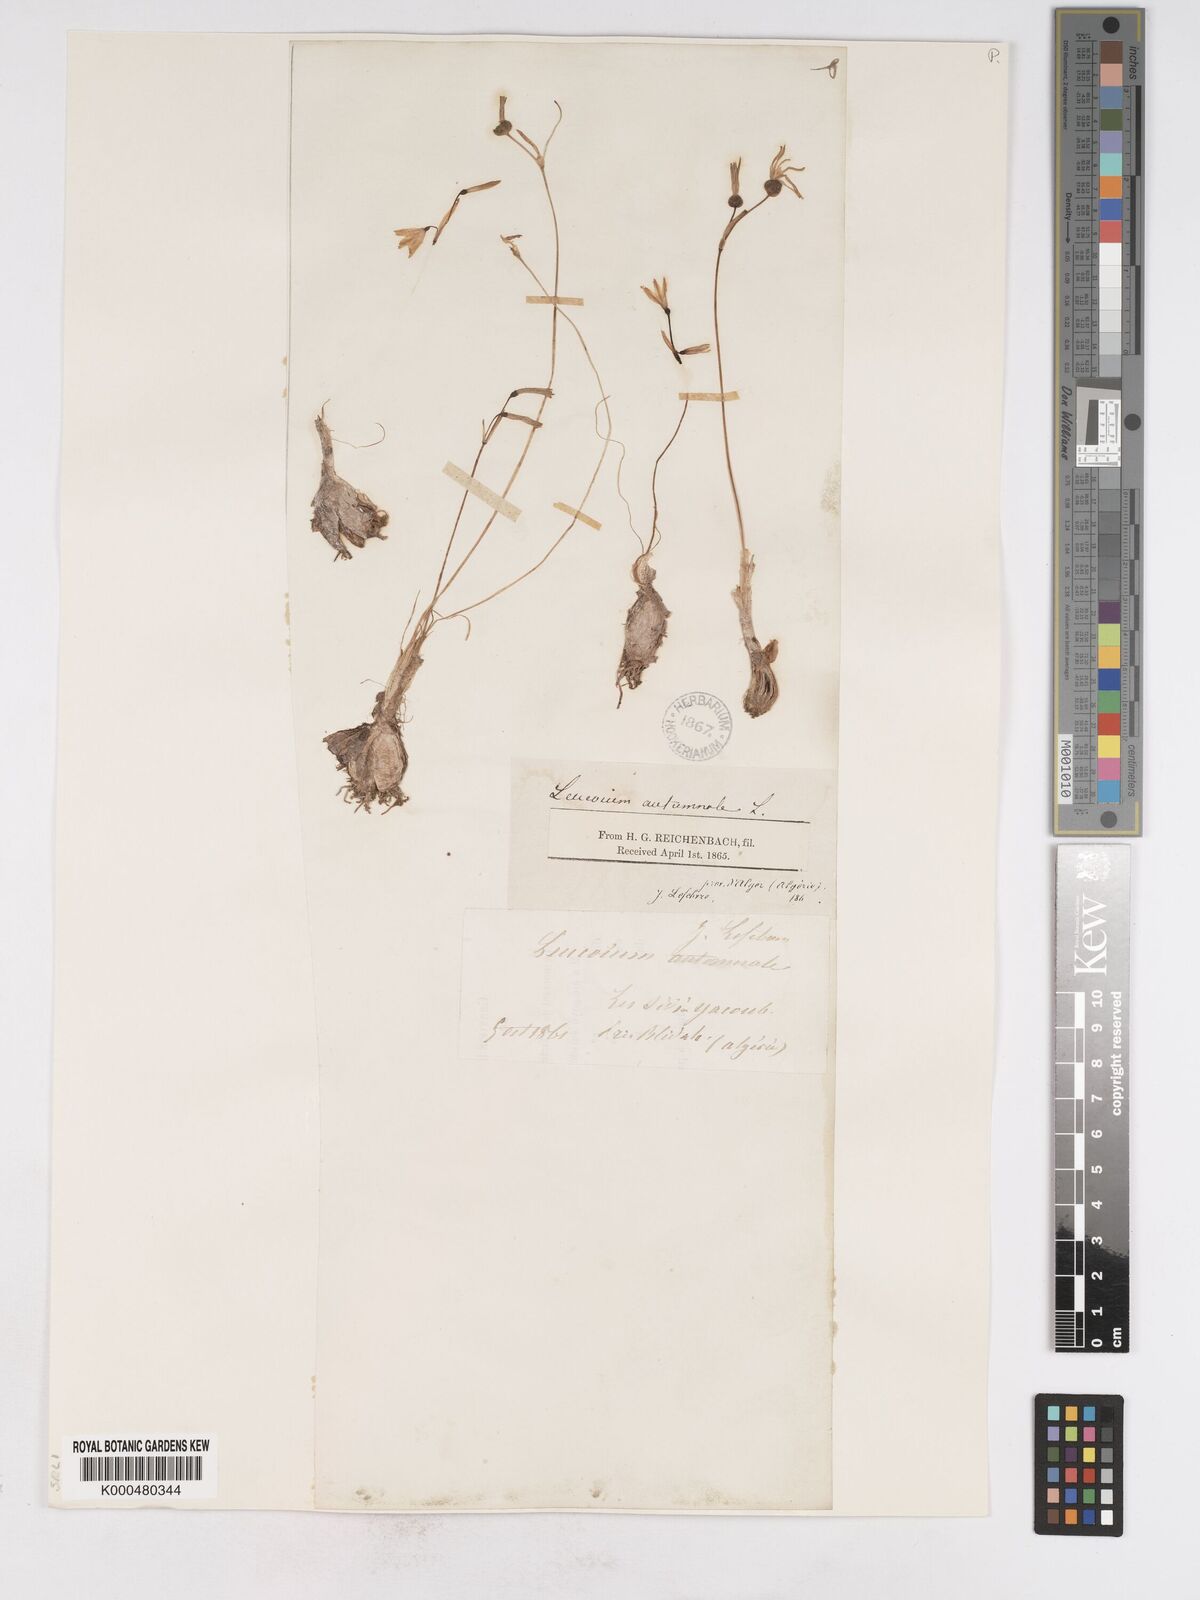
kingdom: Plantae
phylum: Tracheophyta
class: Liliopsida
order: Asparagales
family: Amaryllidaceae
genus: Acis
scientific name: Acis autumnalis
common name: Autumn snowflake
